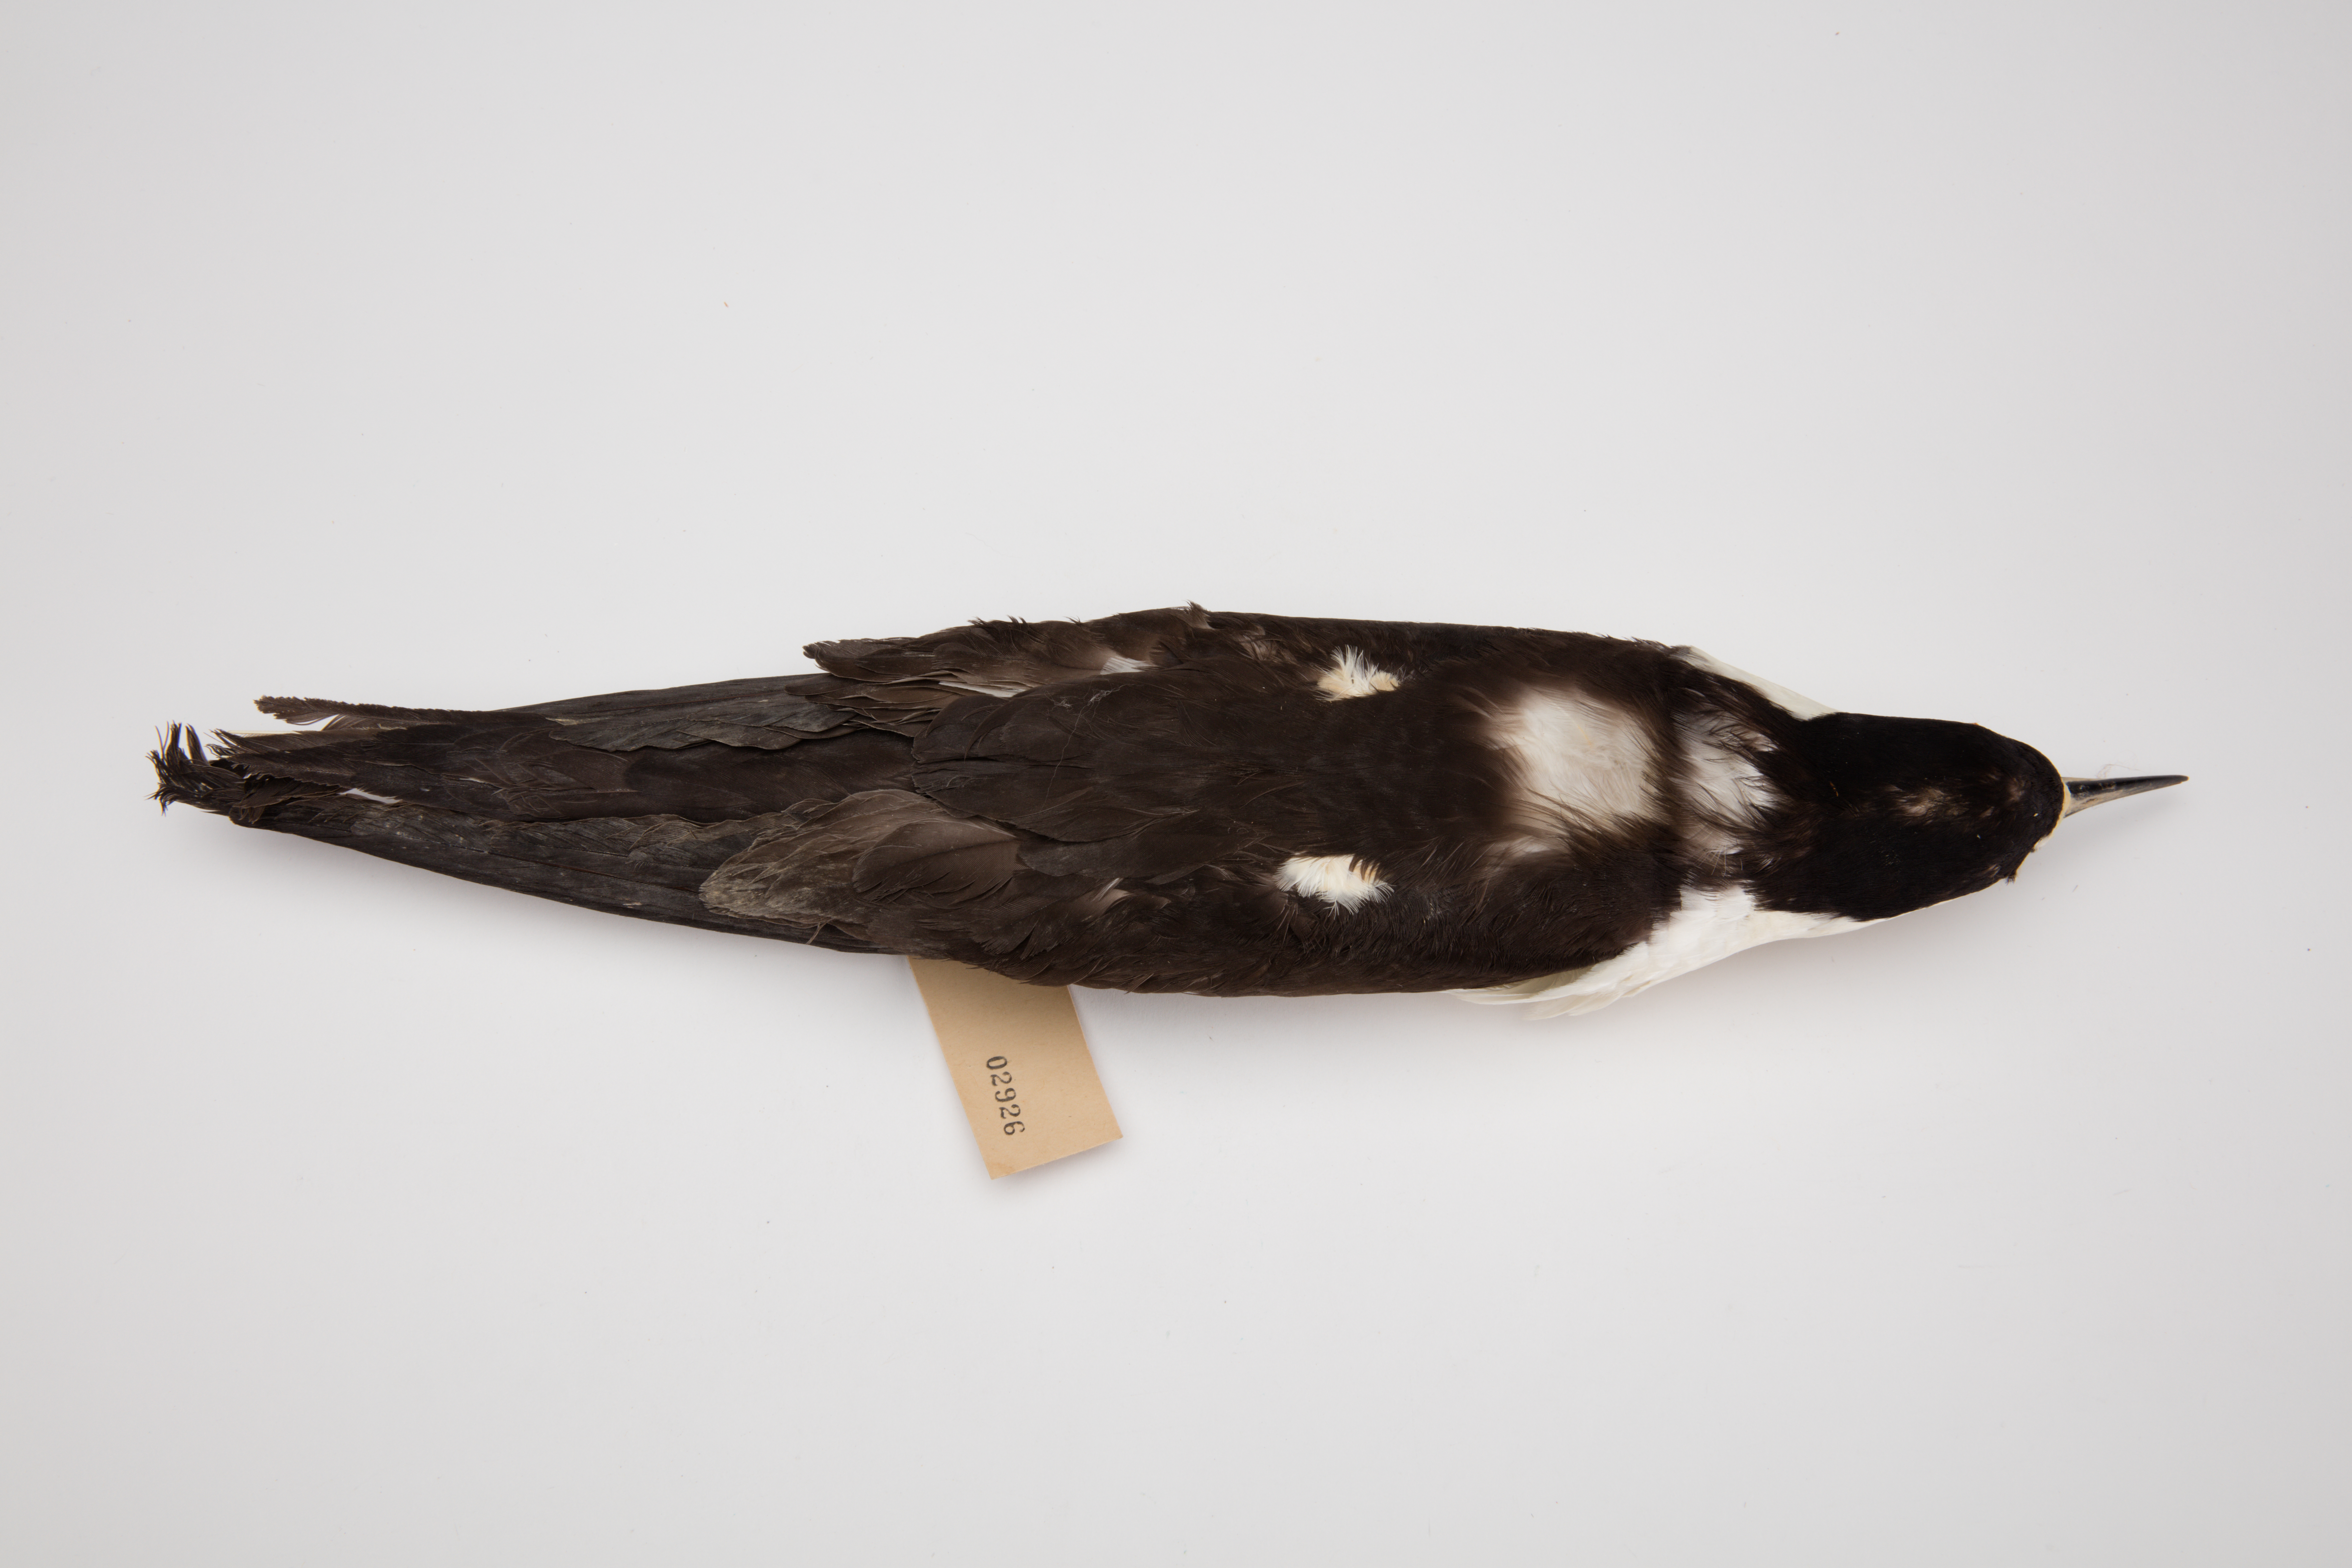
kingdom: Animalia
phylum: Chordata
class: Aves
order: Charadriiformes
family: Laridae
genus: Onychoprion
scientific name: Onychoprion fuscatus
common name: Sooty tern
